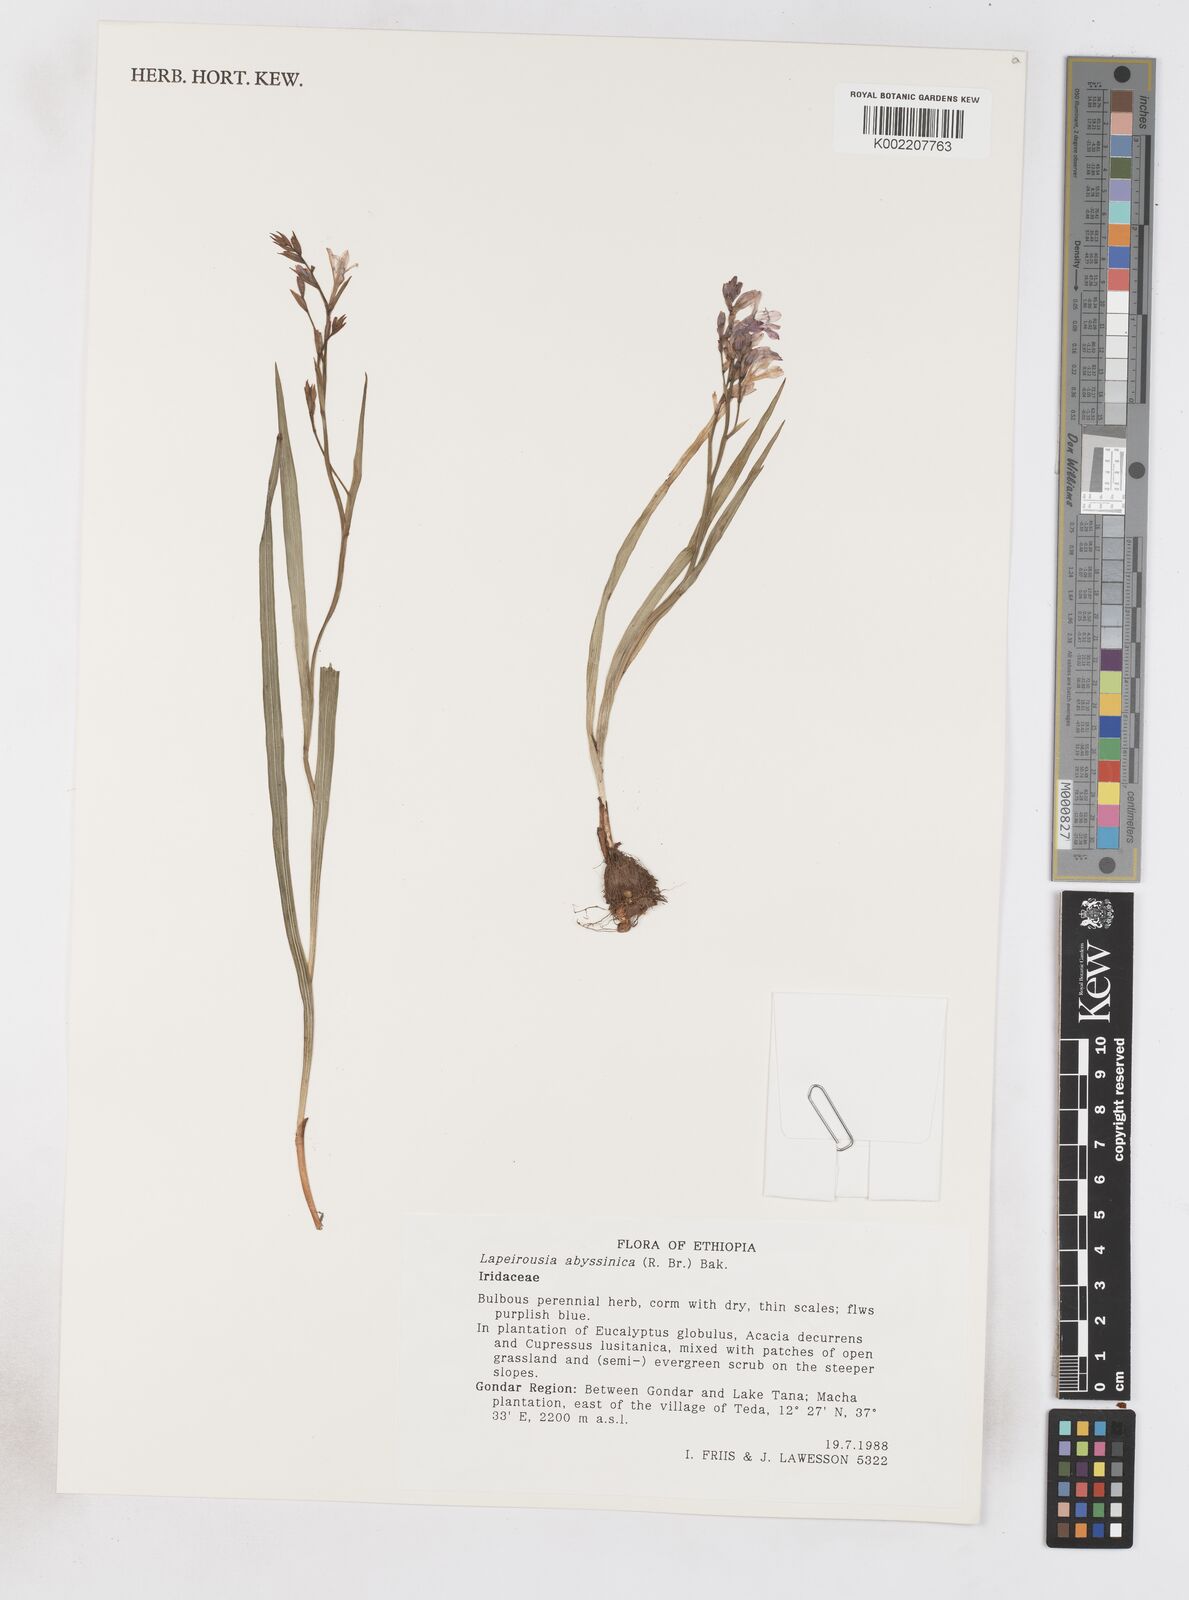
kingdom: Plantae
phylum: Tracheophyta
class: Liliopsida
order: Asparagales
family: Iridaceae
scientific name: Iridaceae
